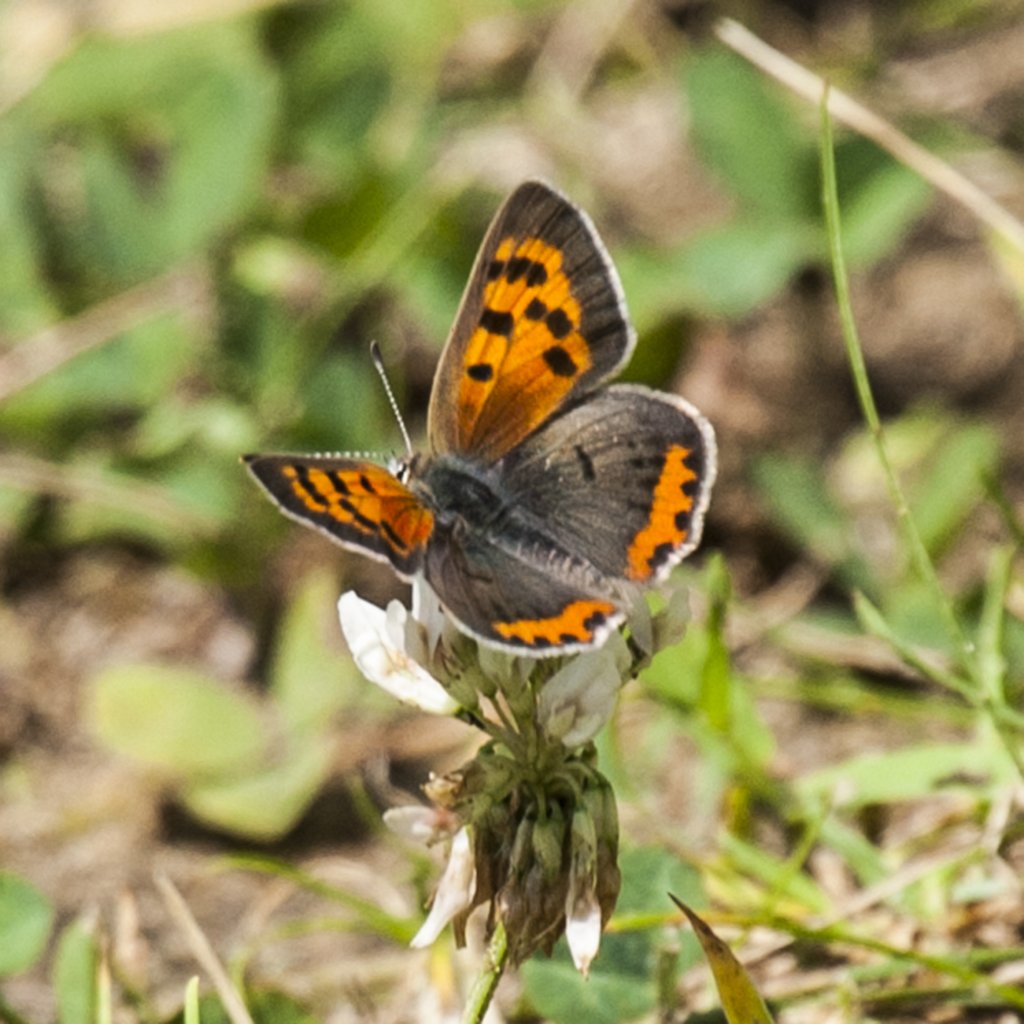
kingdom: Animalia
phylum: Arthropoda
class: Insecta
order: Lepidoptera
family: Lycaenidae
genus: Lycaena
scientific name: Lycaena phlaeas
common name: American Copper
